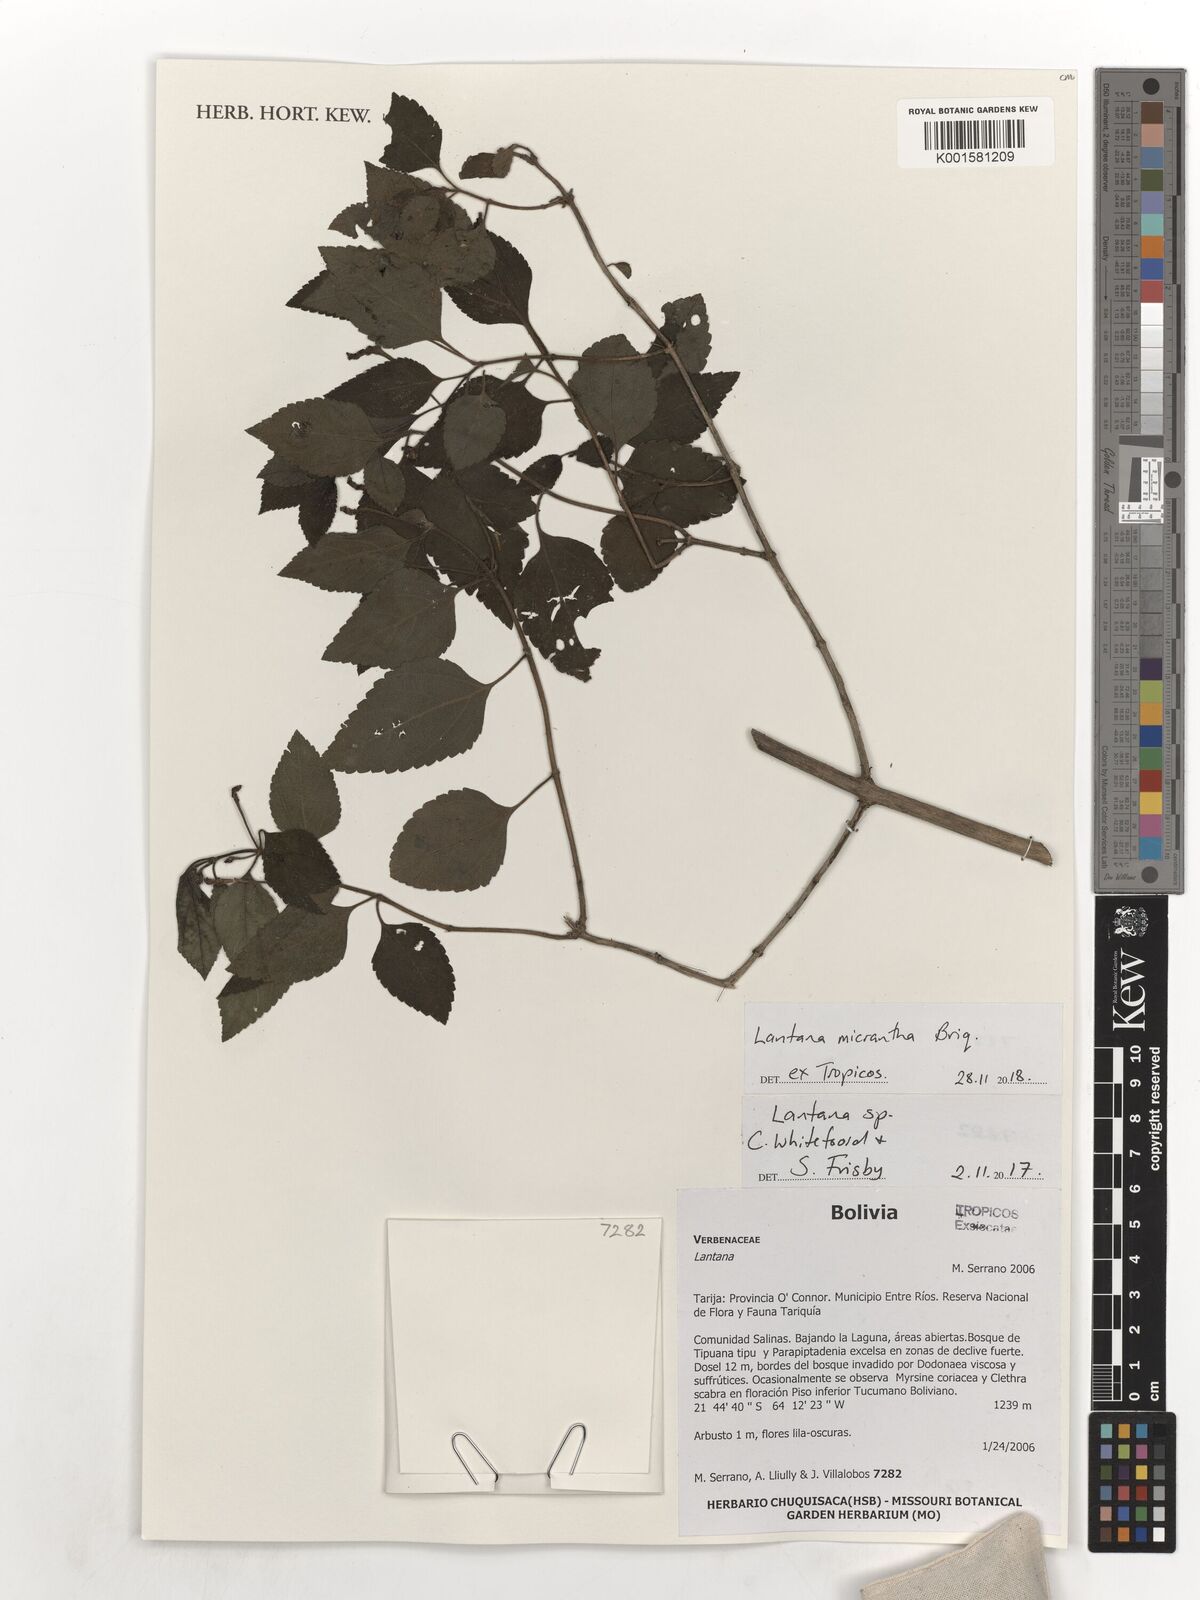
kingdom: Plantae
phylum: Tracheophyta
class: Magnoliopsida
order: Lamiales
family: Verbenaceae
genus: Lantana
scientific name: Lantana micrantha
